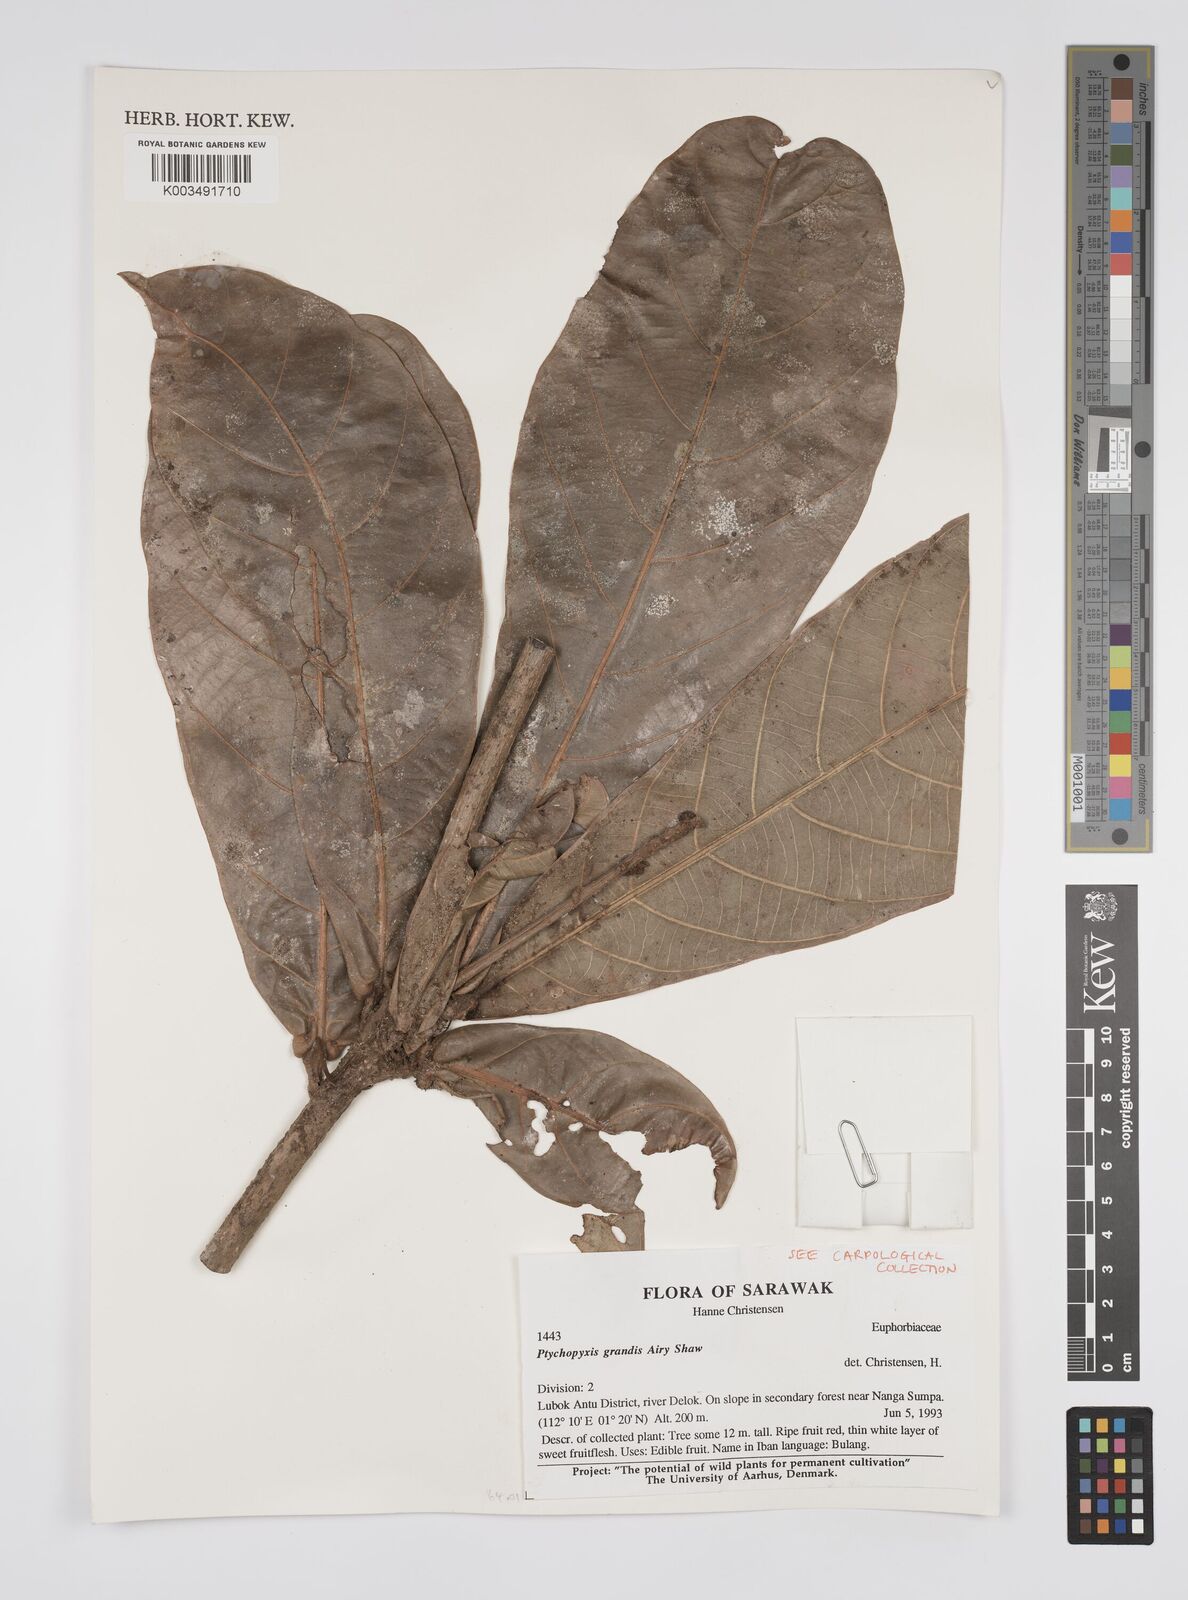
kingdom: Plantae
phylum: Tracheophyta
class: Magnoliopsida
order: Malpighiales
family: Euphorbiaceae
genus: Ptychopyxis
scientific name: Ptychopyxis grandis
